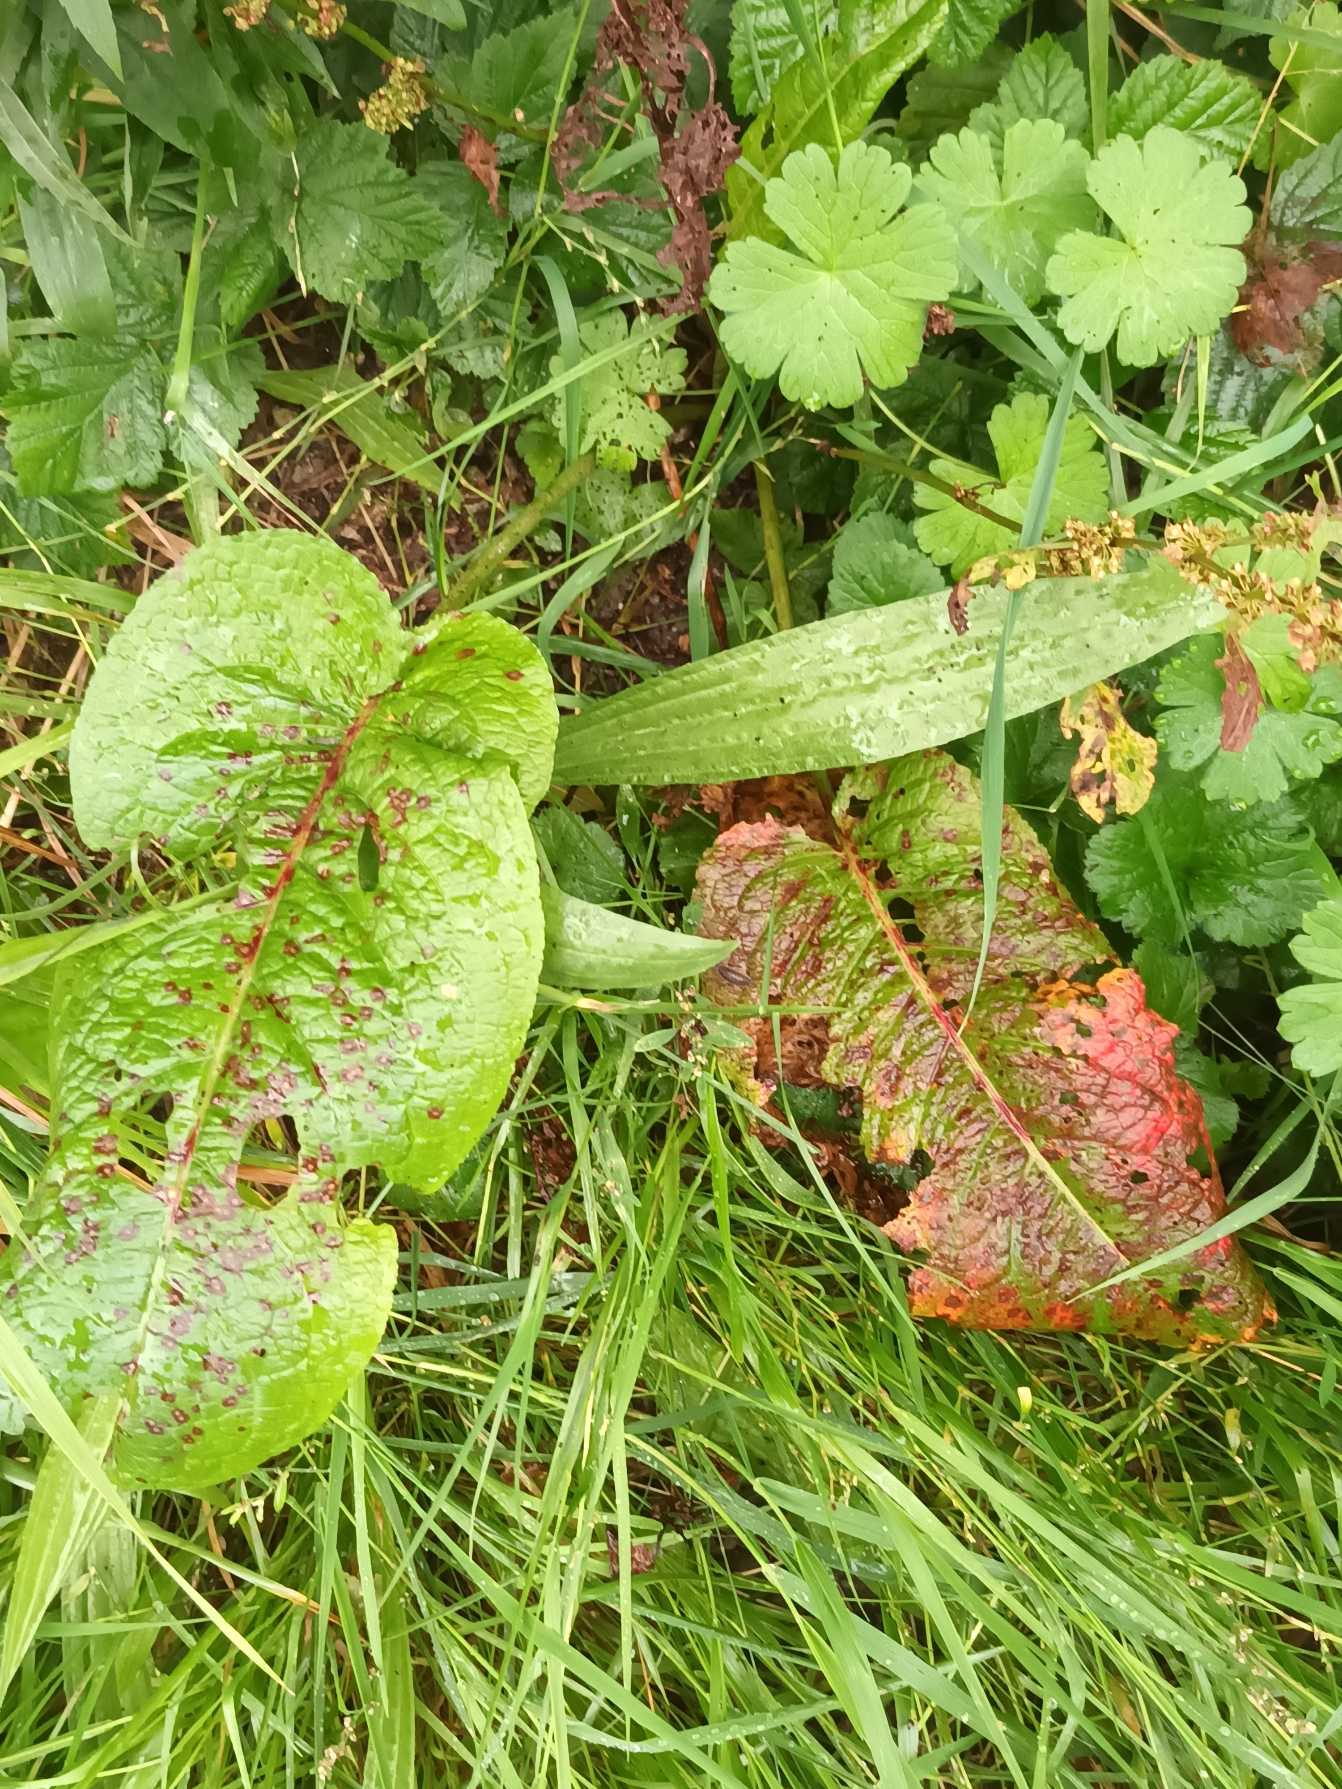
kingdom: Plantae
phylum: Tracheophyta
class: Magnoliopsida
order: Caryophyllales
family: Polygonaceae
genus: Rumex
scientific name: Rumex obtusifolius
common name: Butbladet skræppe
